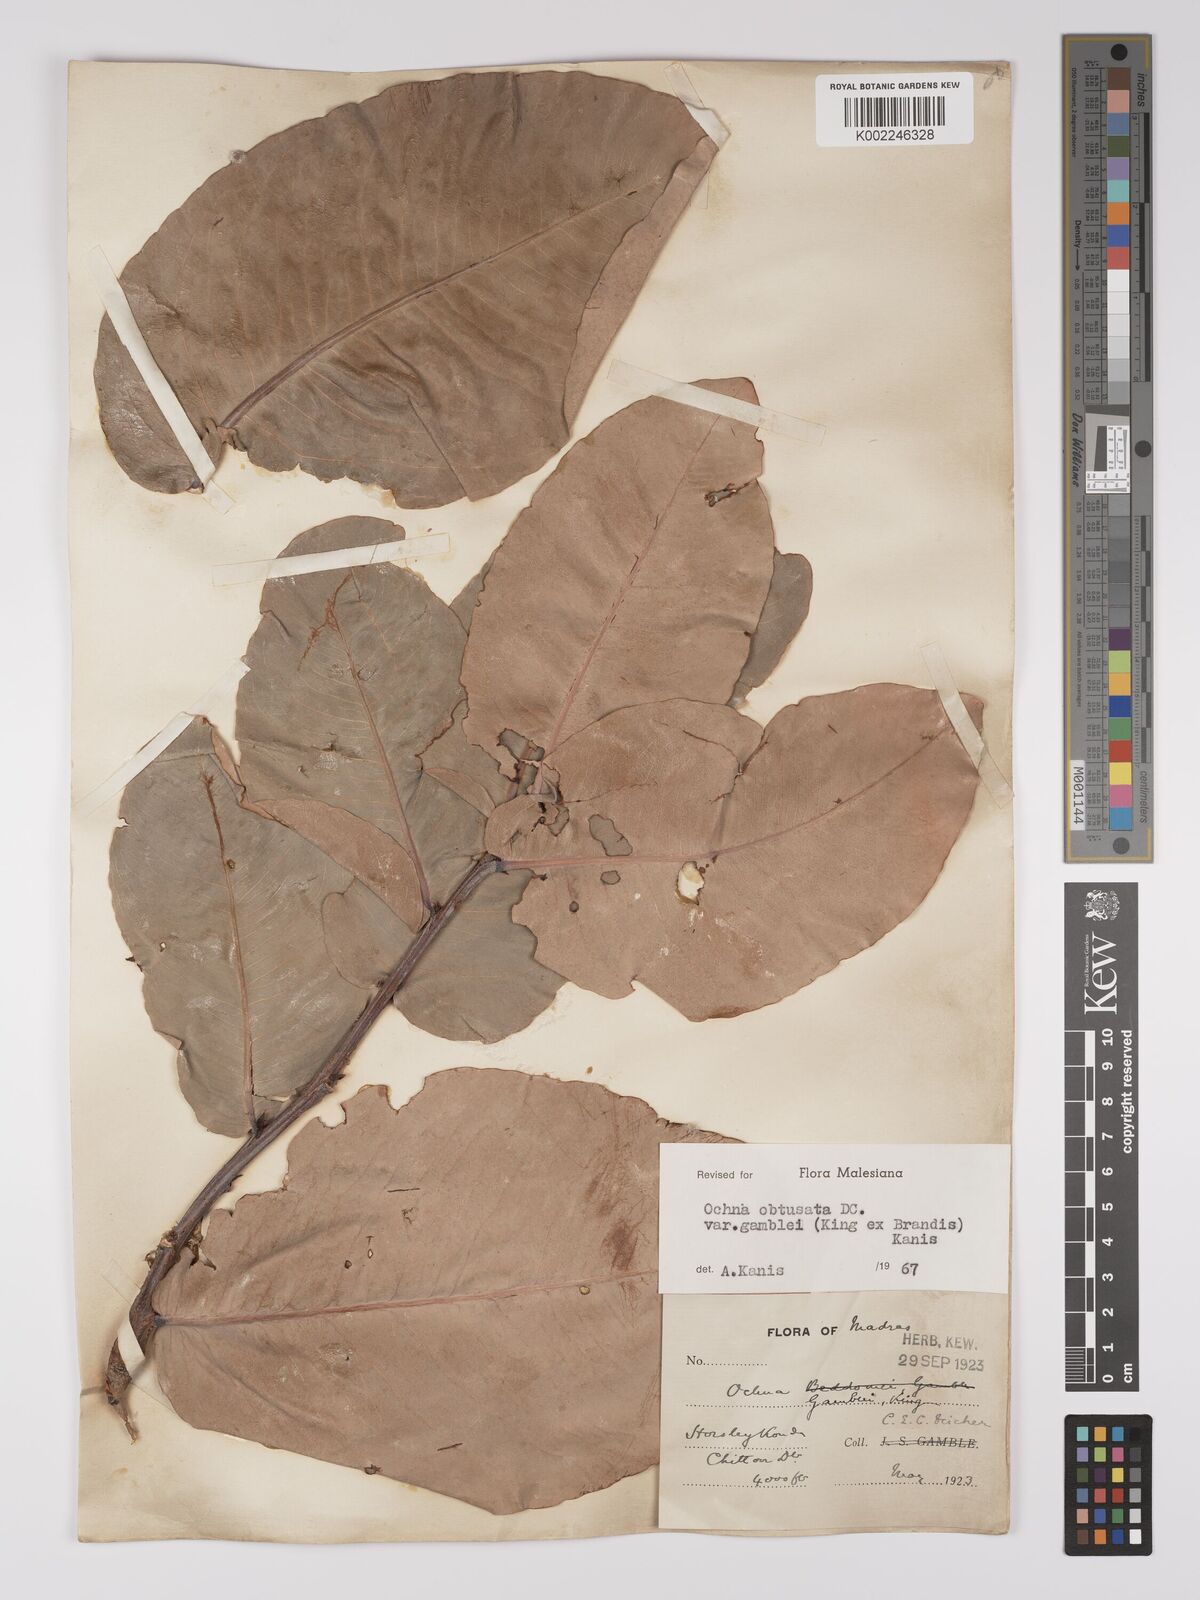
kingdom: Plantae
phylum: Tracheophyta
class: Magnoliopsida
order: Malpighiales
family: Ochnaceae
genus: Ochna
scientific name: Ochna obtusata
